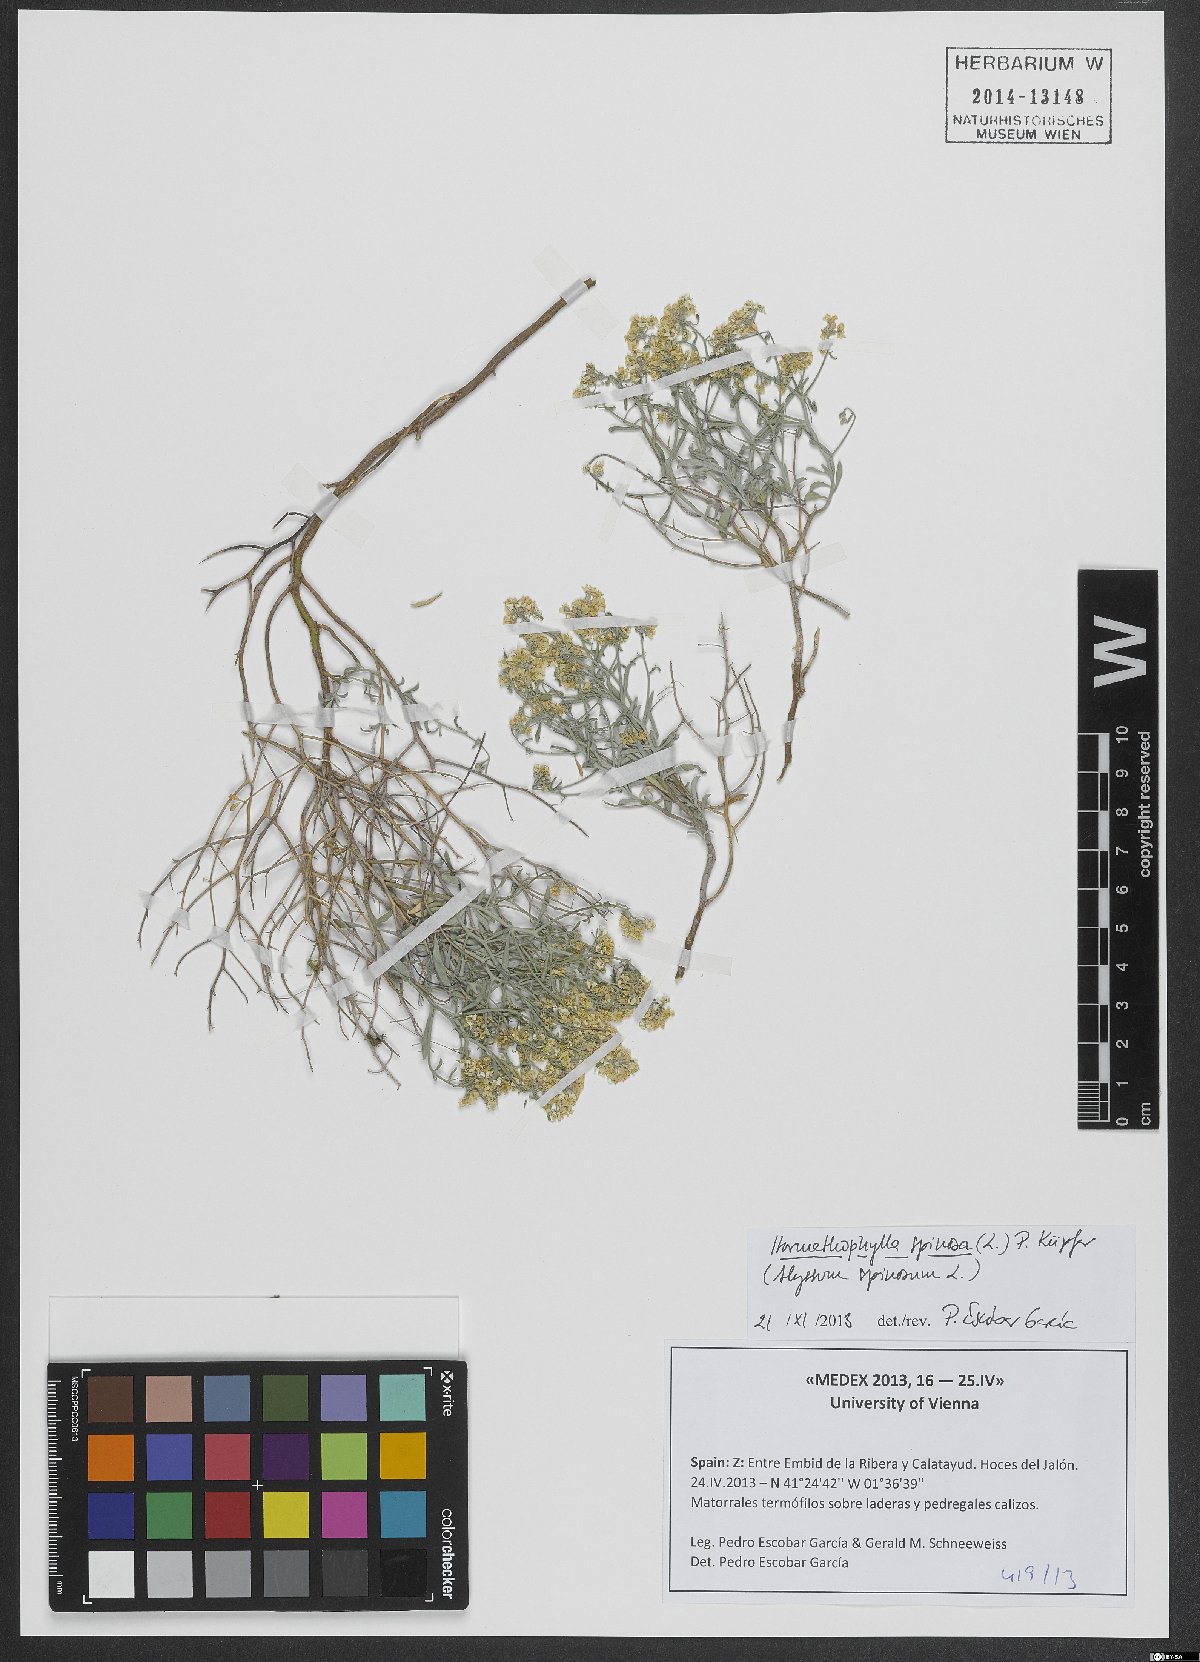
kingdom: Plantae
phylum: Tracheophyta
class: Magnoliopsida
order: Brassicales
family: Brassicaceae
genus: Hormathophylla
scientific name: Hormathophylla spinosa
